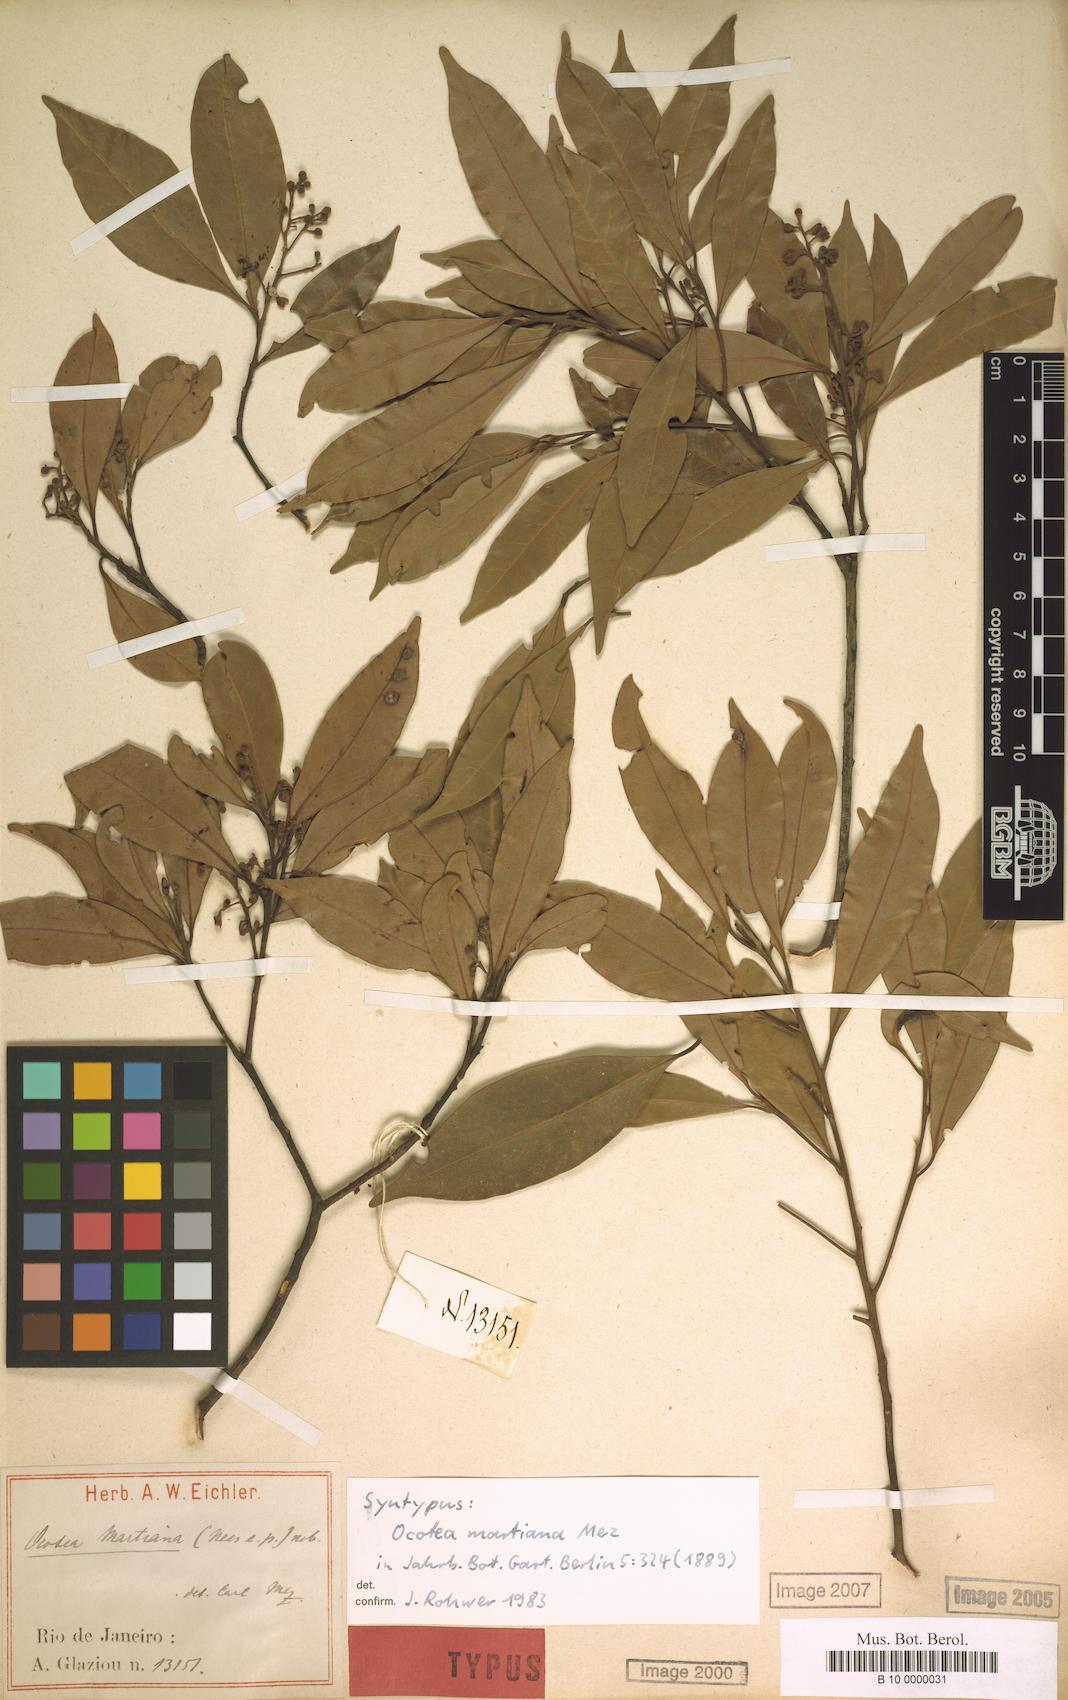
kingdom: Plantae
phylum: Tracheophyta
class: Magnoliopsida
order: Laurales
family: Lauraceae
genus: Ocotea
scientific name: Ocotea lancifolia
